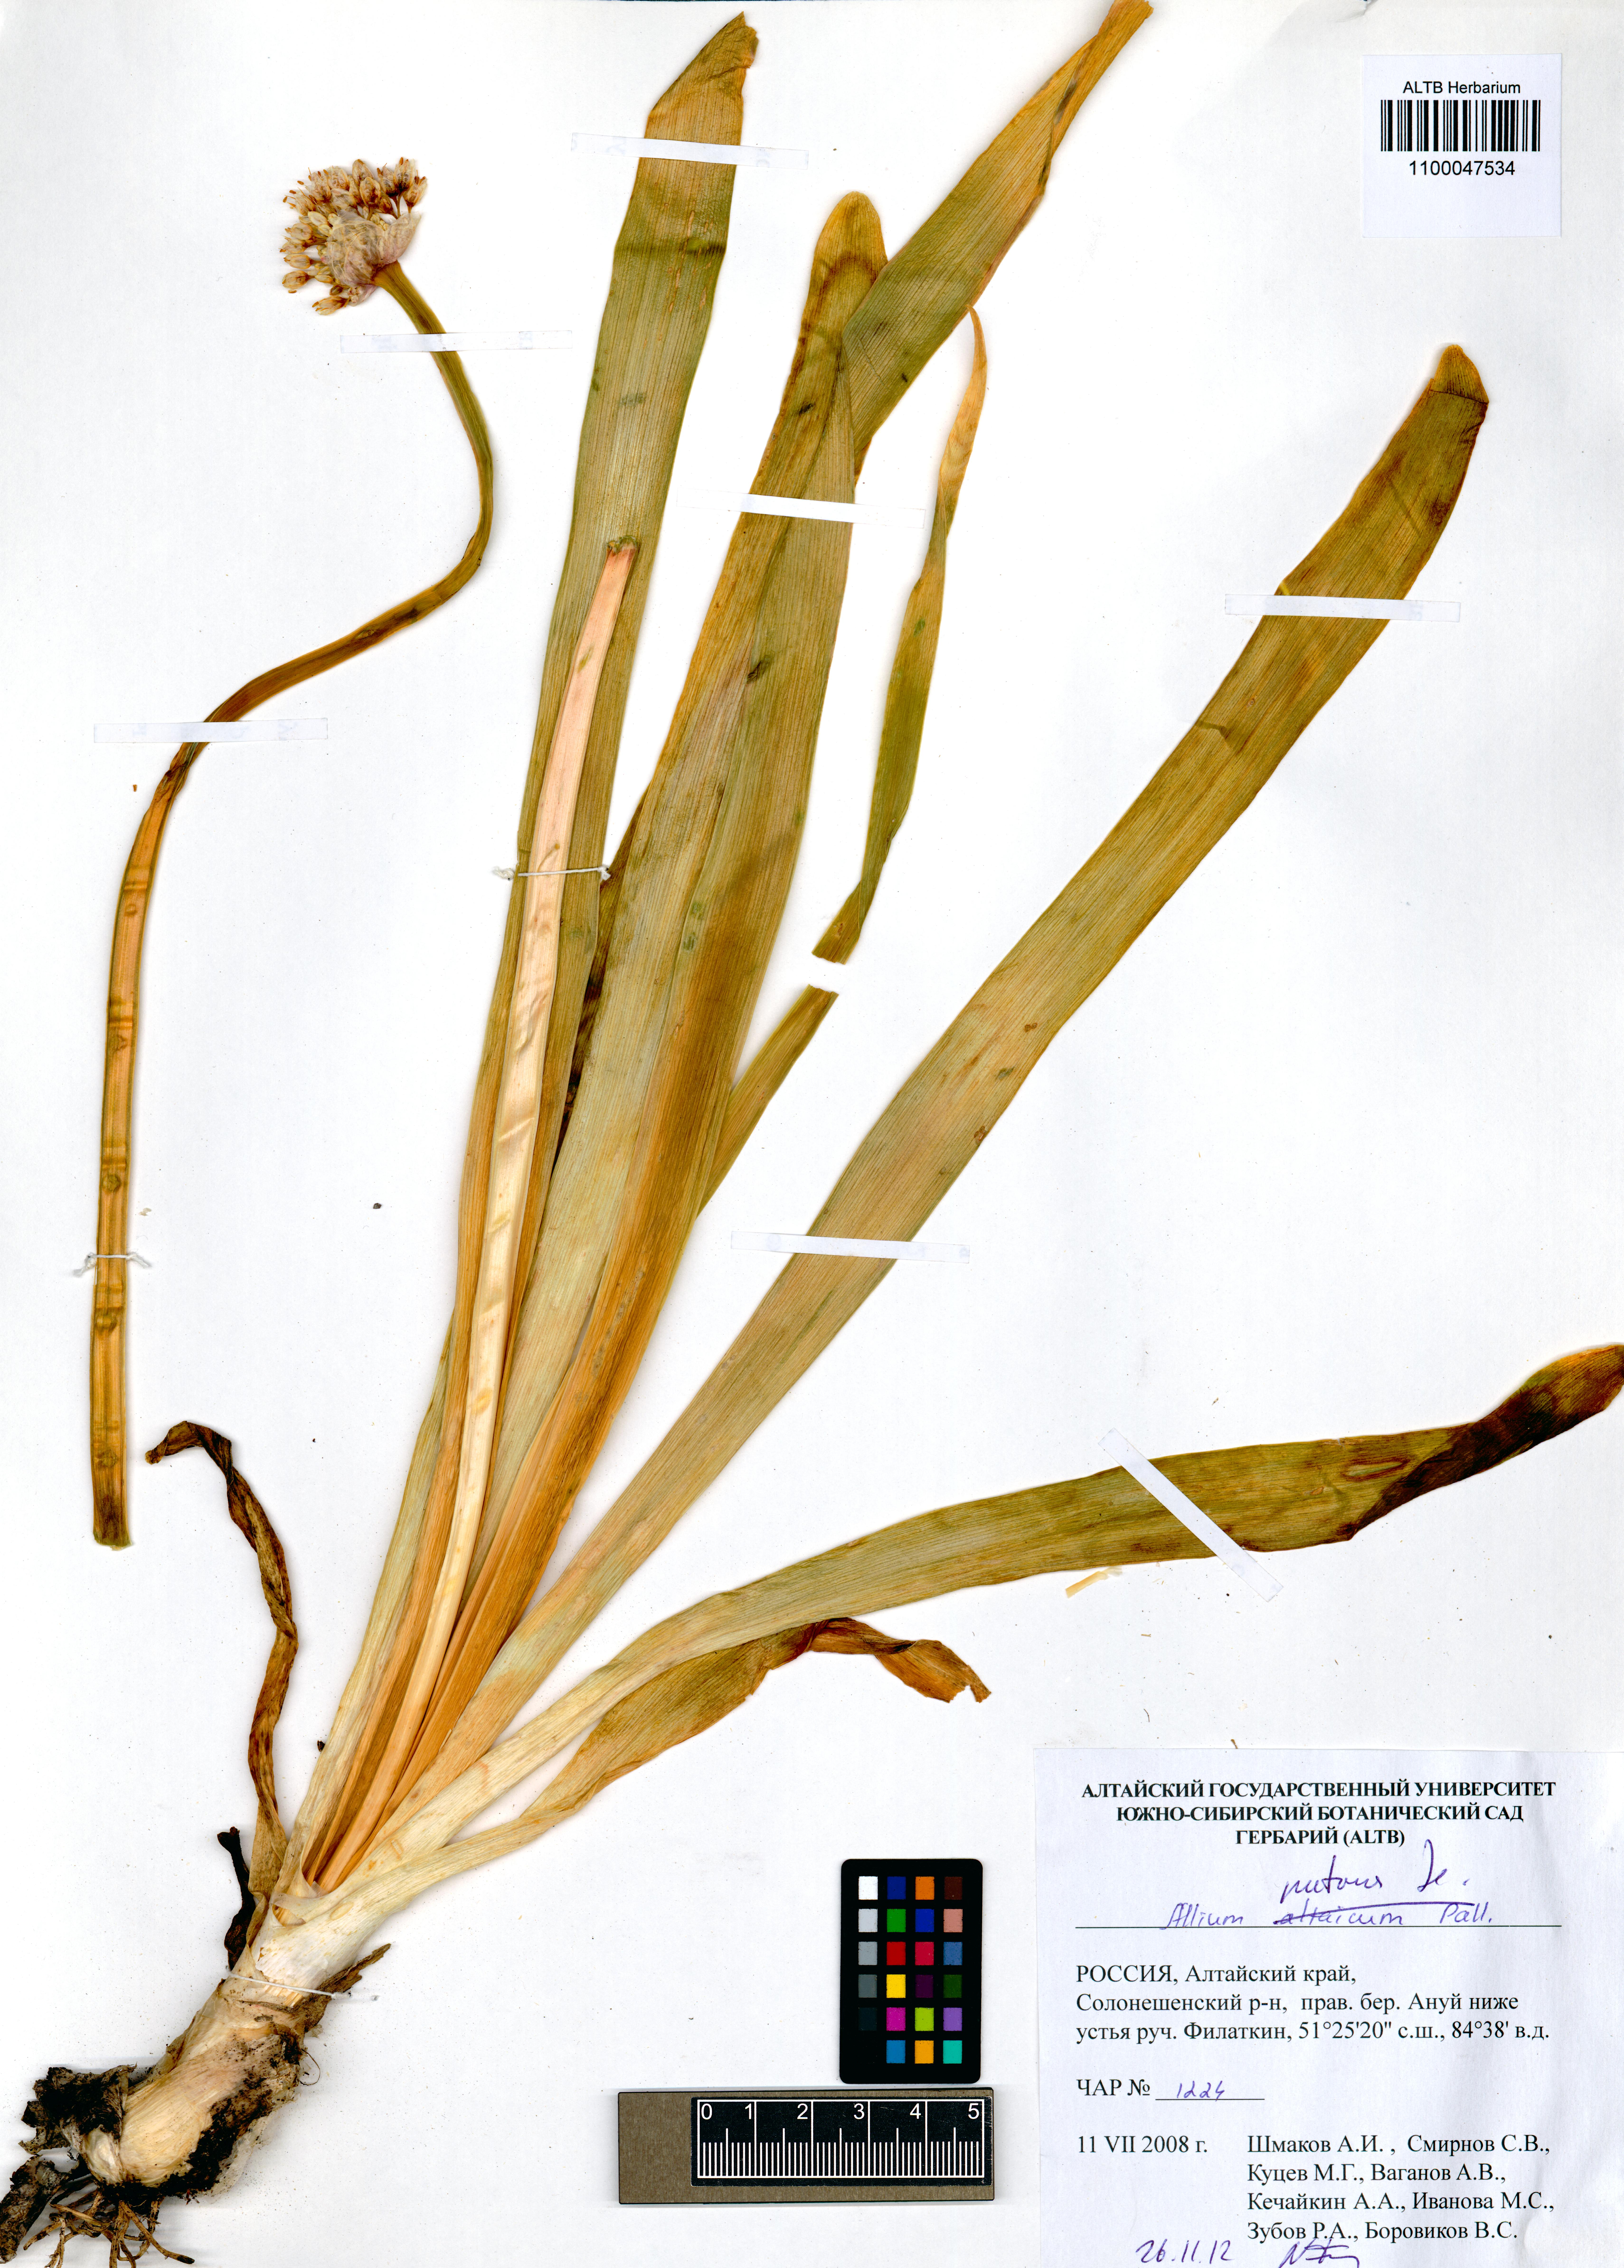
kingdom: Plantae
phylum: Tracheophyta
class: Liliopsida
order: Asparagales
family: Amaryllidaceae
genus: Allium
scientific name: Allium nutans
